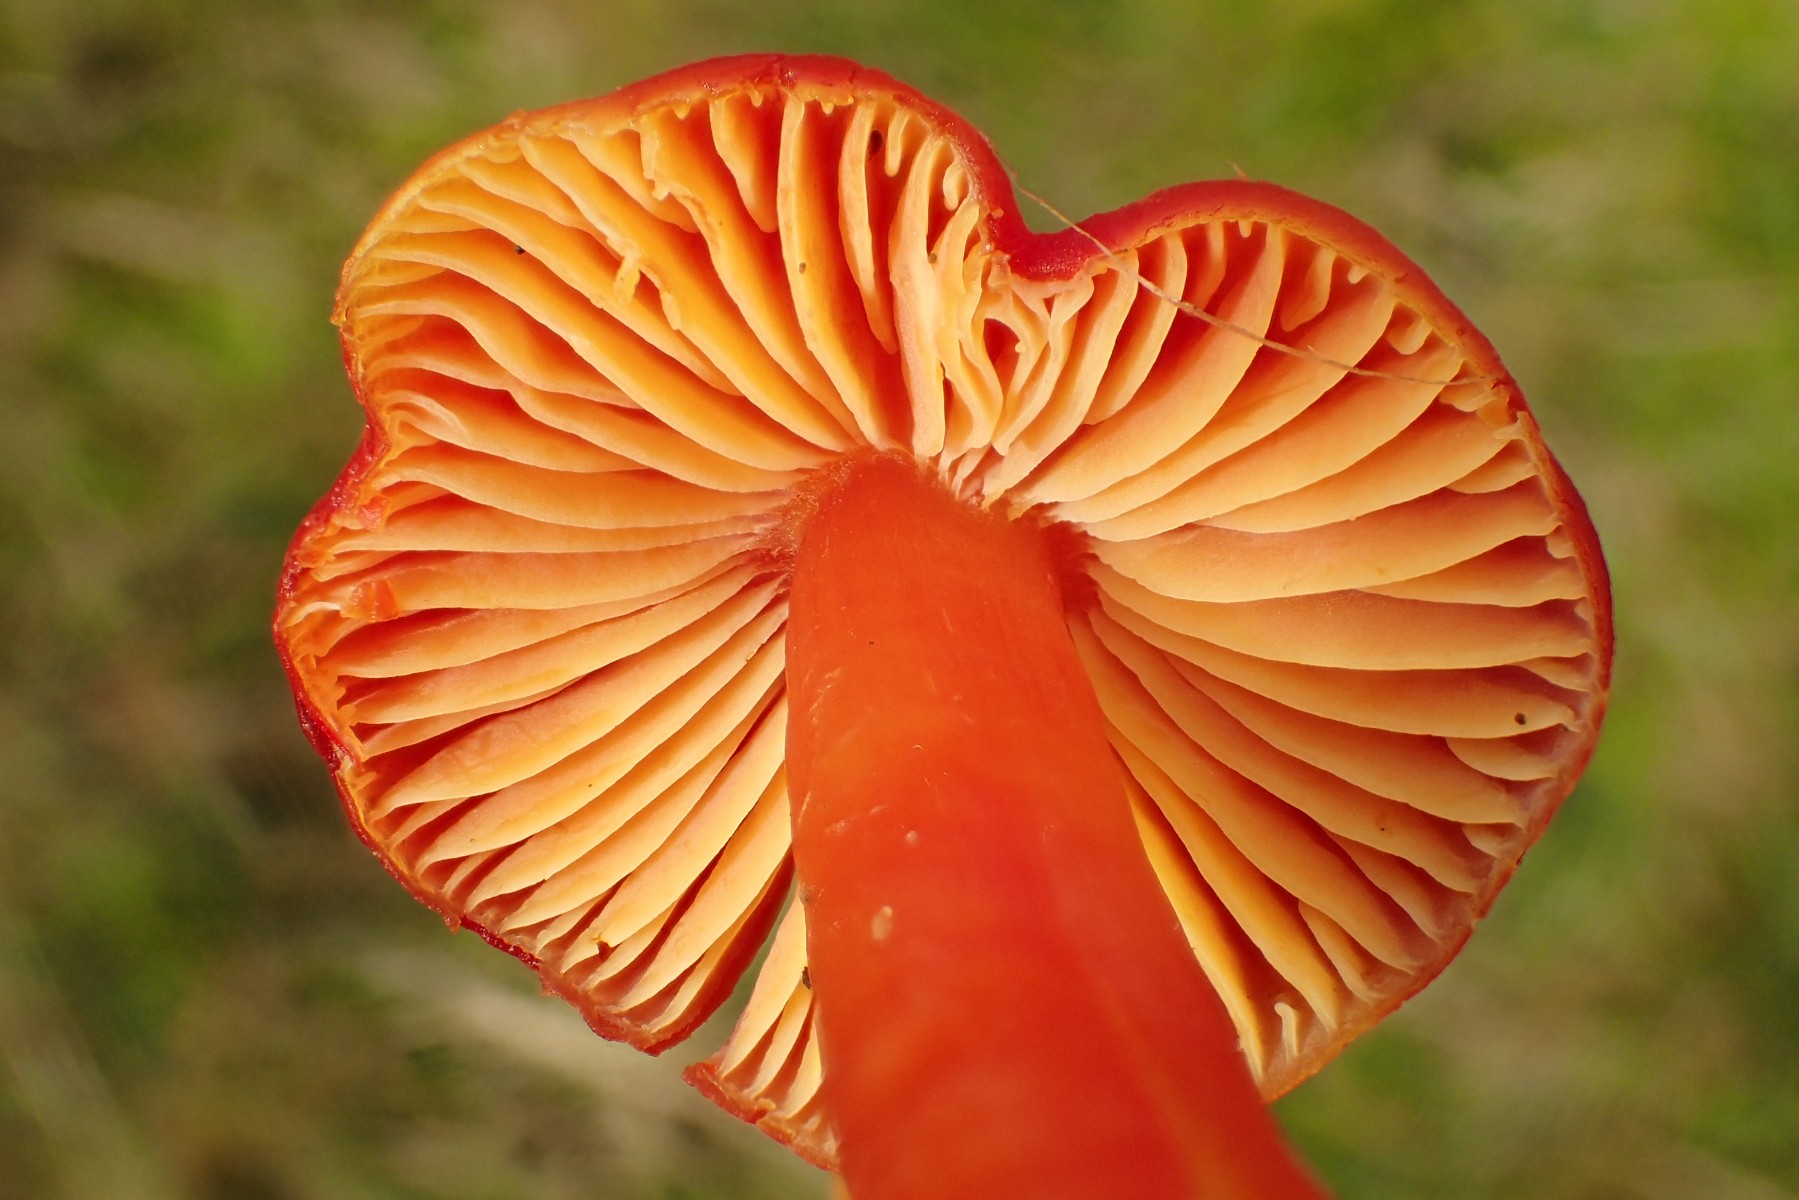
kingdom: Fungi
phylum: Basidiomycota
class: Agaricomycetes
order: Agaricales
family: Hygrophoraceae
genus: Hygrocybe
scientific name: Hygrocybe splendidissima
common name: knaldrød vokshat
